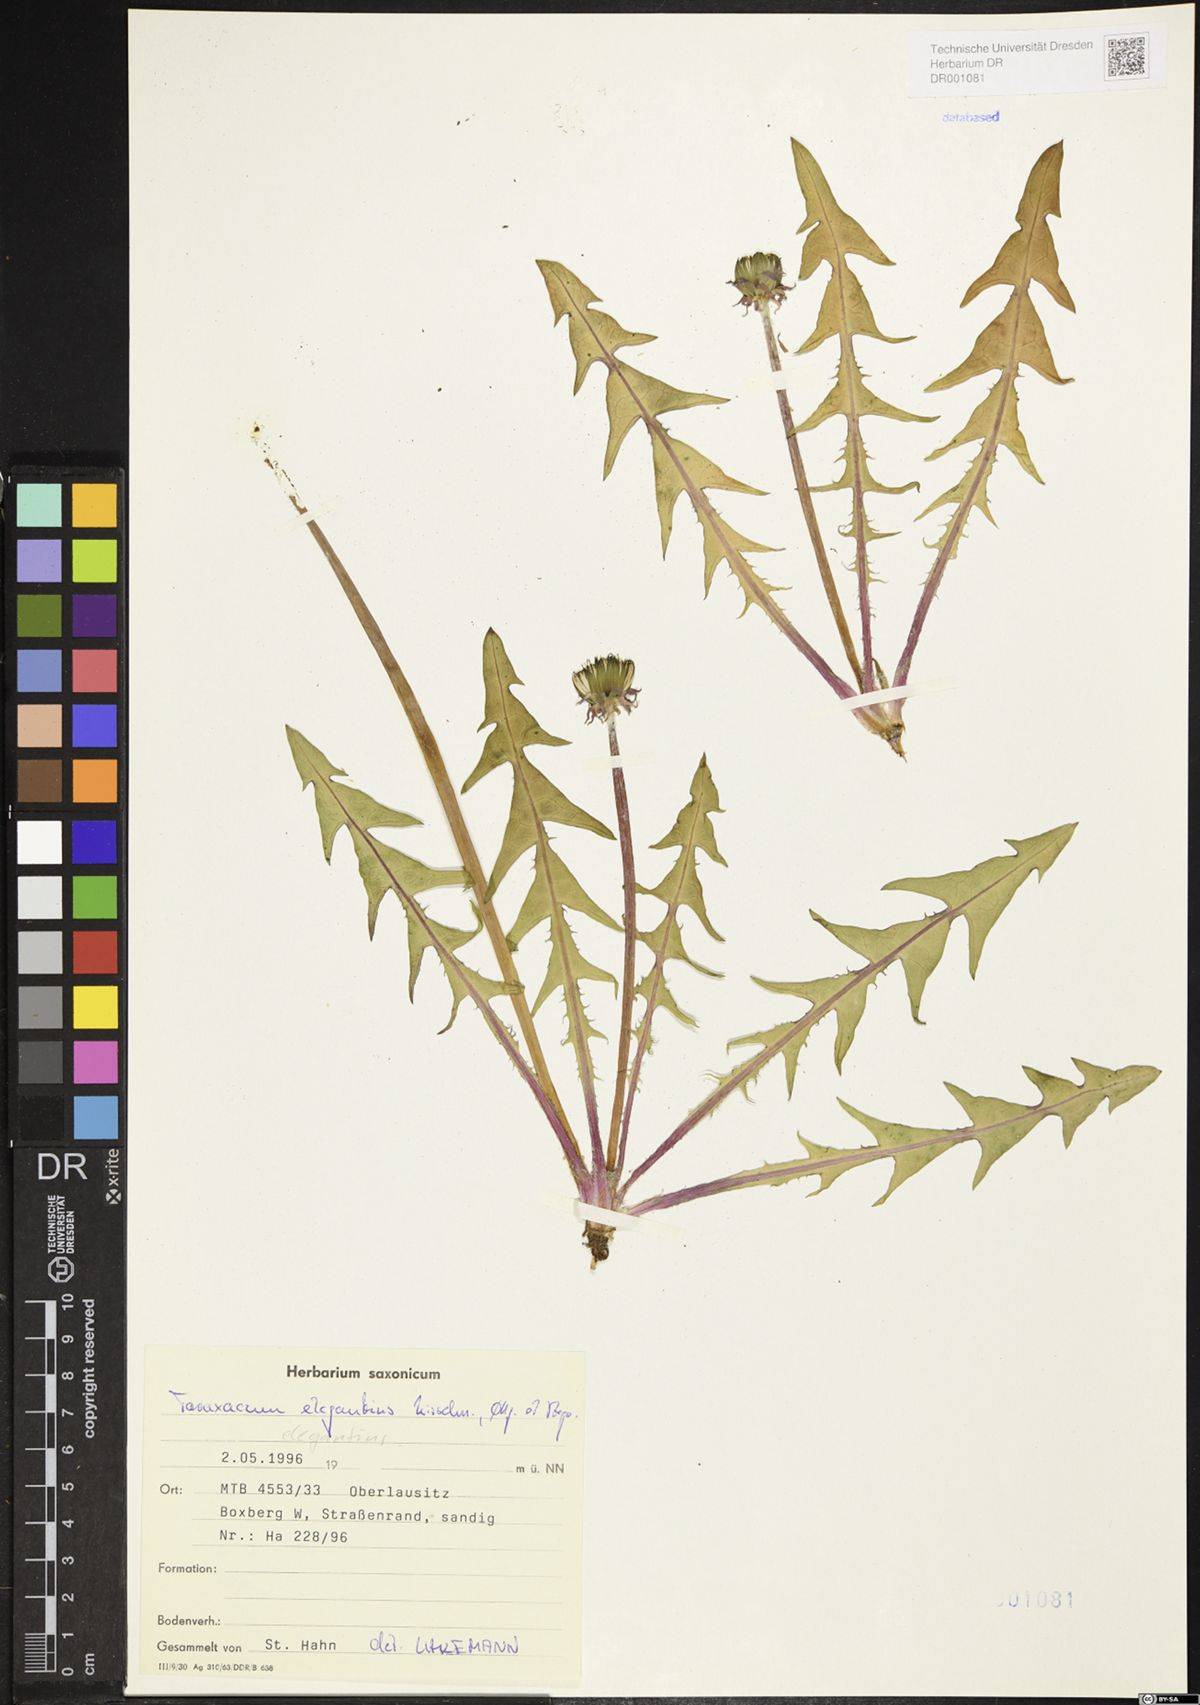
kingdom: Plantae
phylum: Tracheophyta
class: Magnoliopsida
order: Asterales
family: Asteraceae
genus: Taraxacum
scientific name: Taraxacum elegantius
